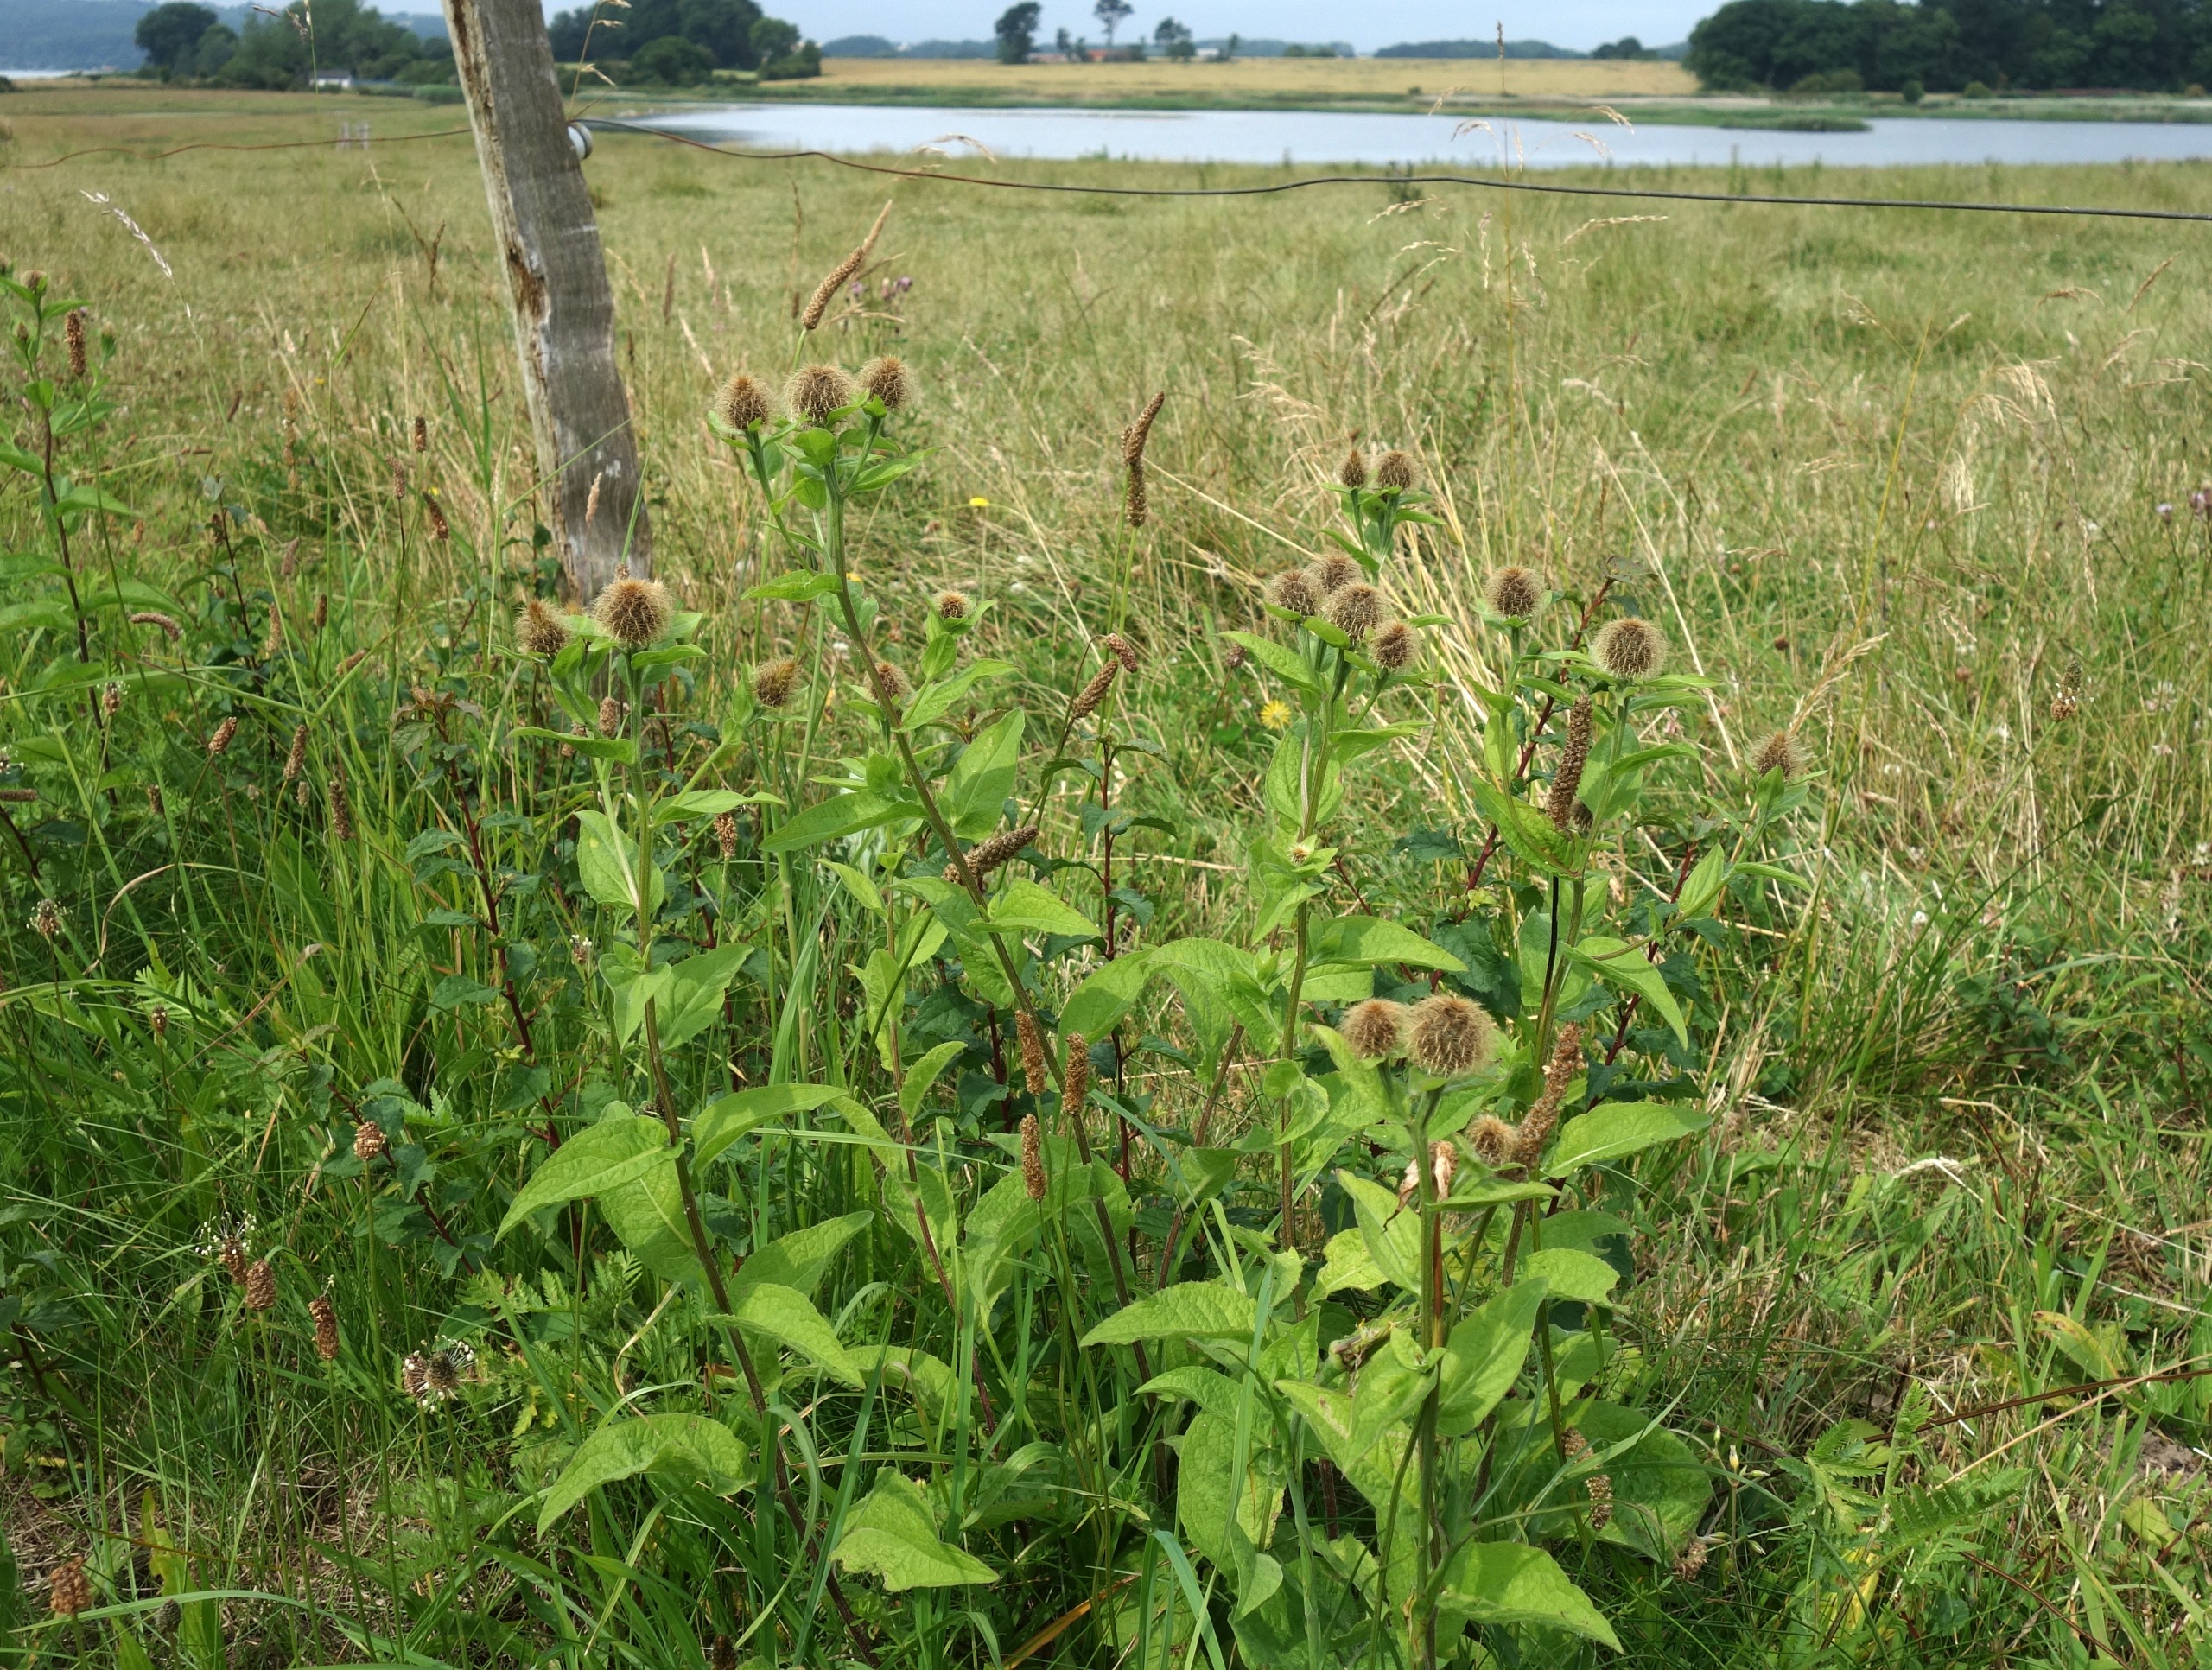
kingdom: Plantae
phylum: Tracheophyta
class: Magnoliopsida
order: Asterales
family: Asteraceae
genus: Centaurea
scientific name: Centaurea pseudophrygia
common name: Fjer-knopurt
